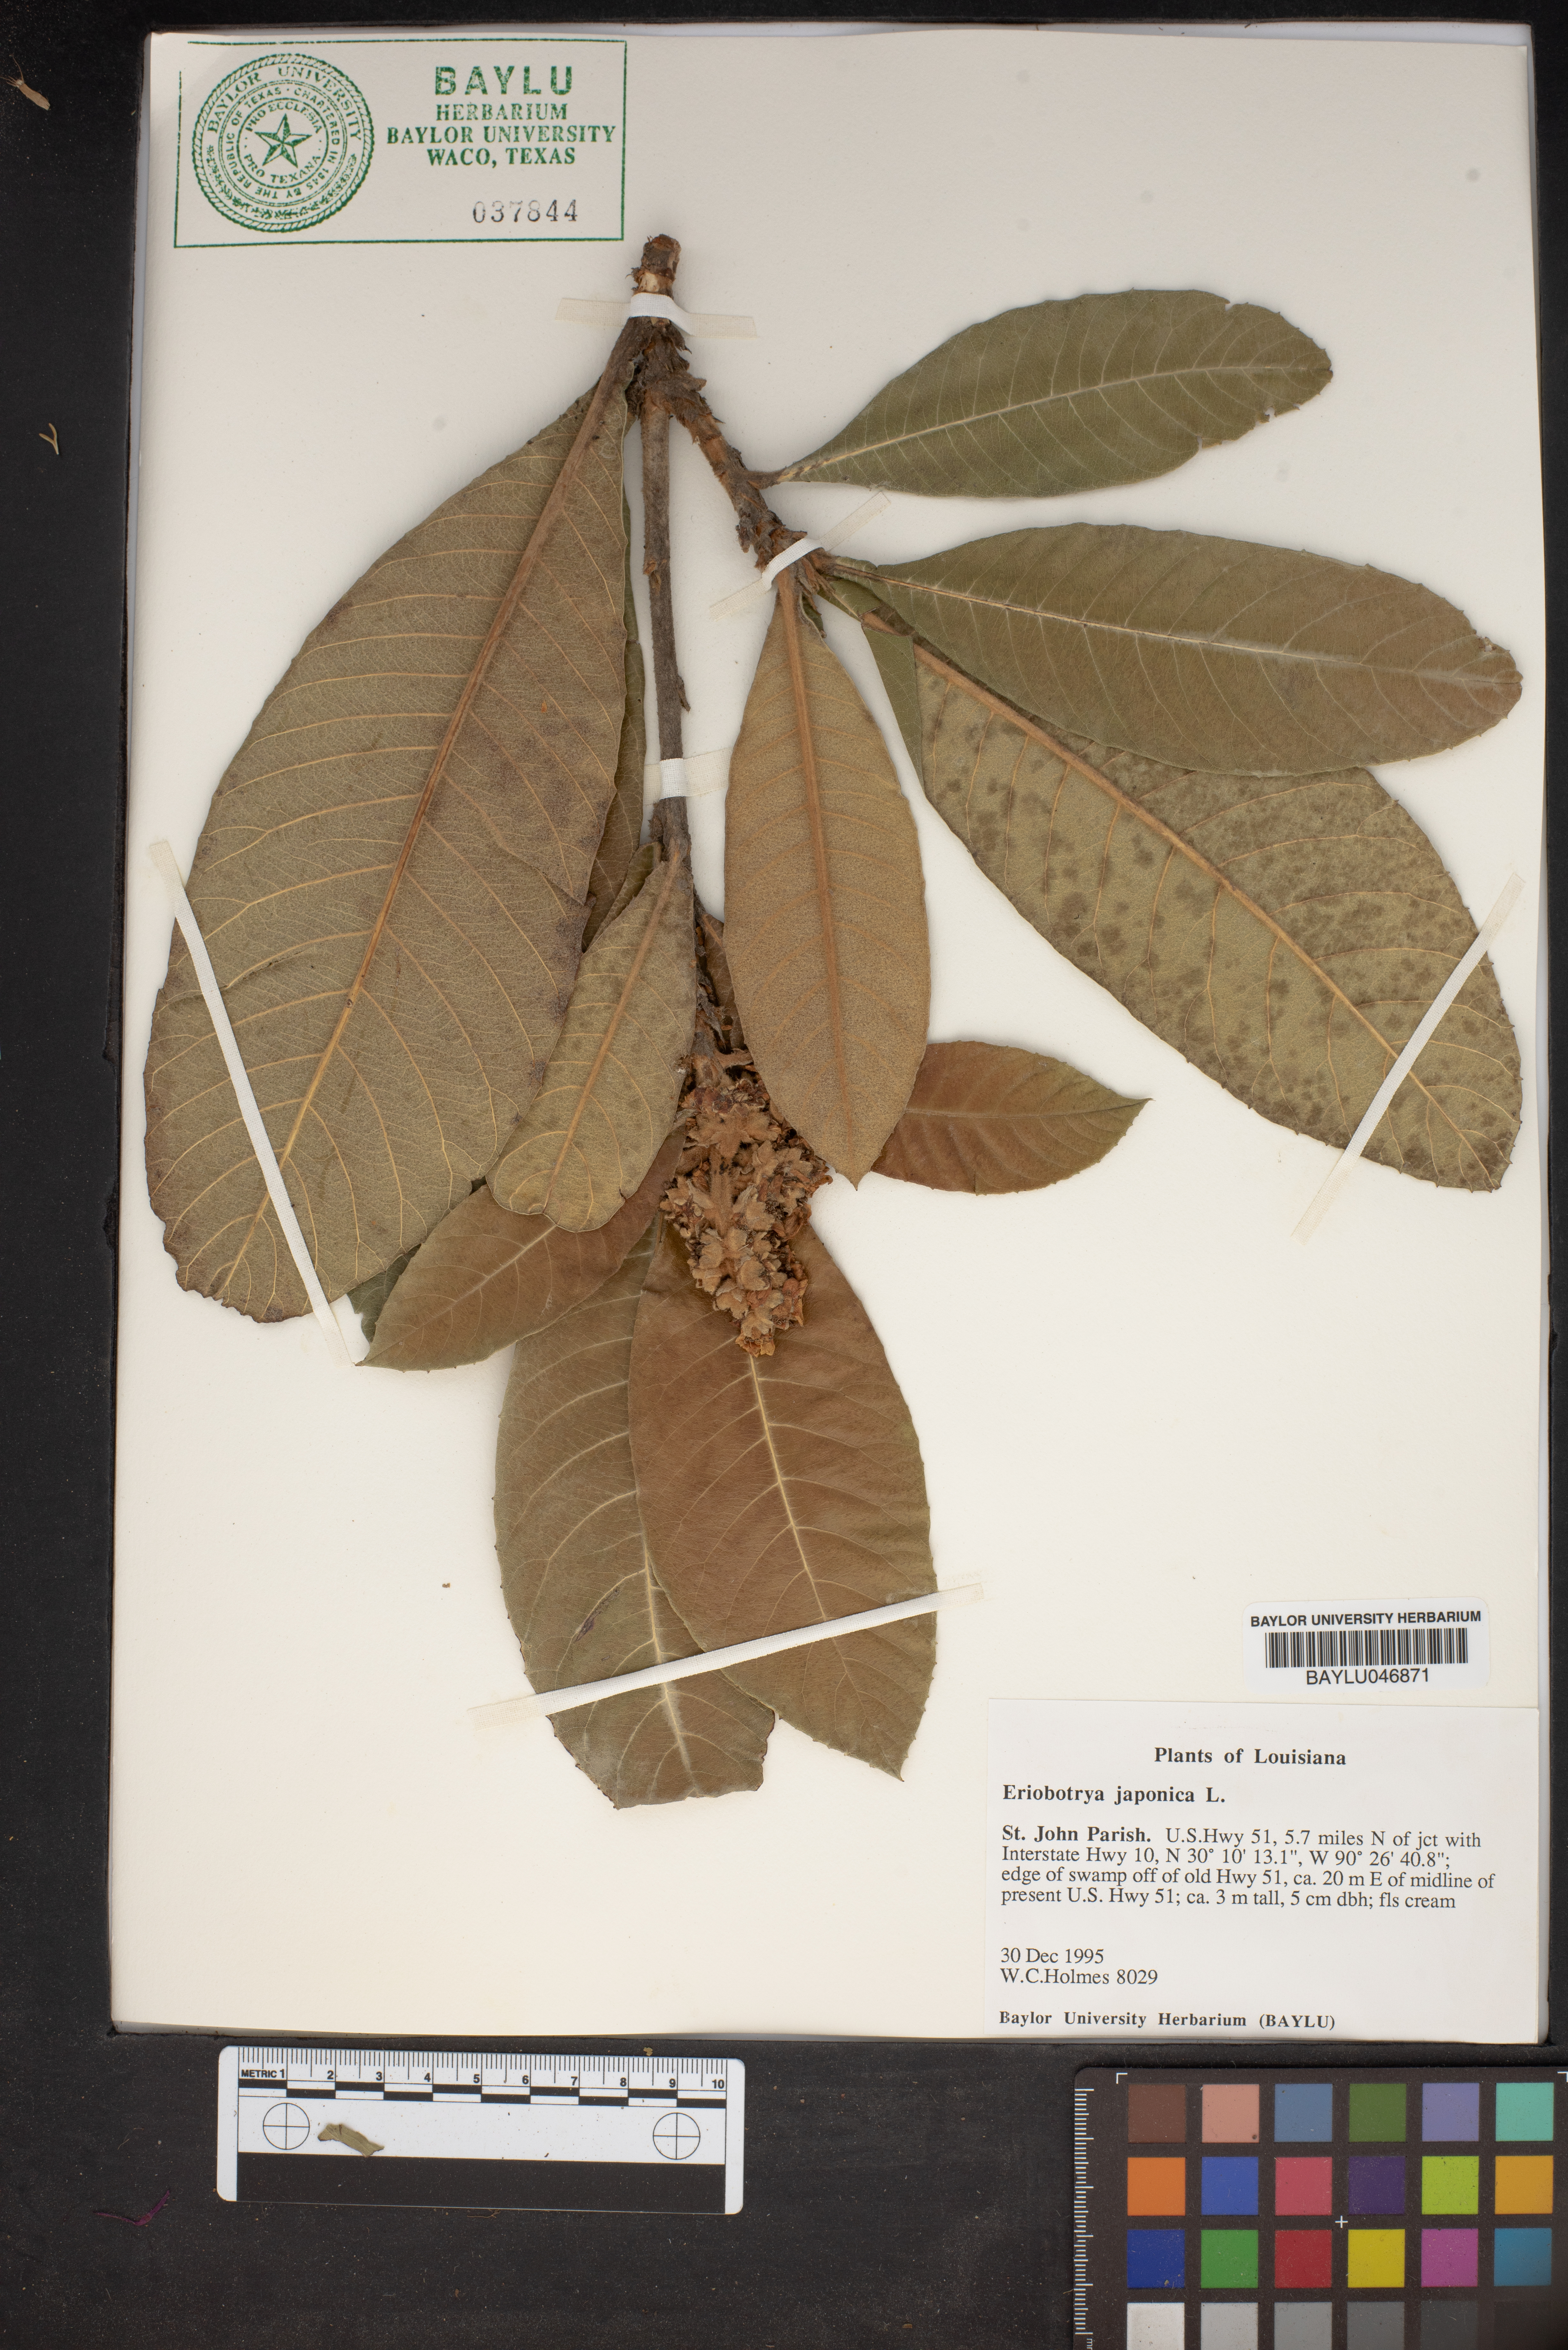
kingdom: Plantae
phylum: Tracheophyta
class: Magnoliopsida
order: Rosales
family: Rosaceae
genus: Rhaphiolepis
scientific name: Rhaphiolepis bibas
